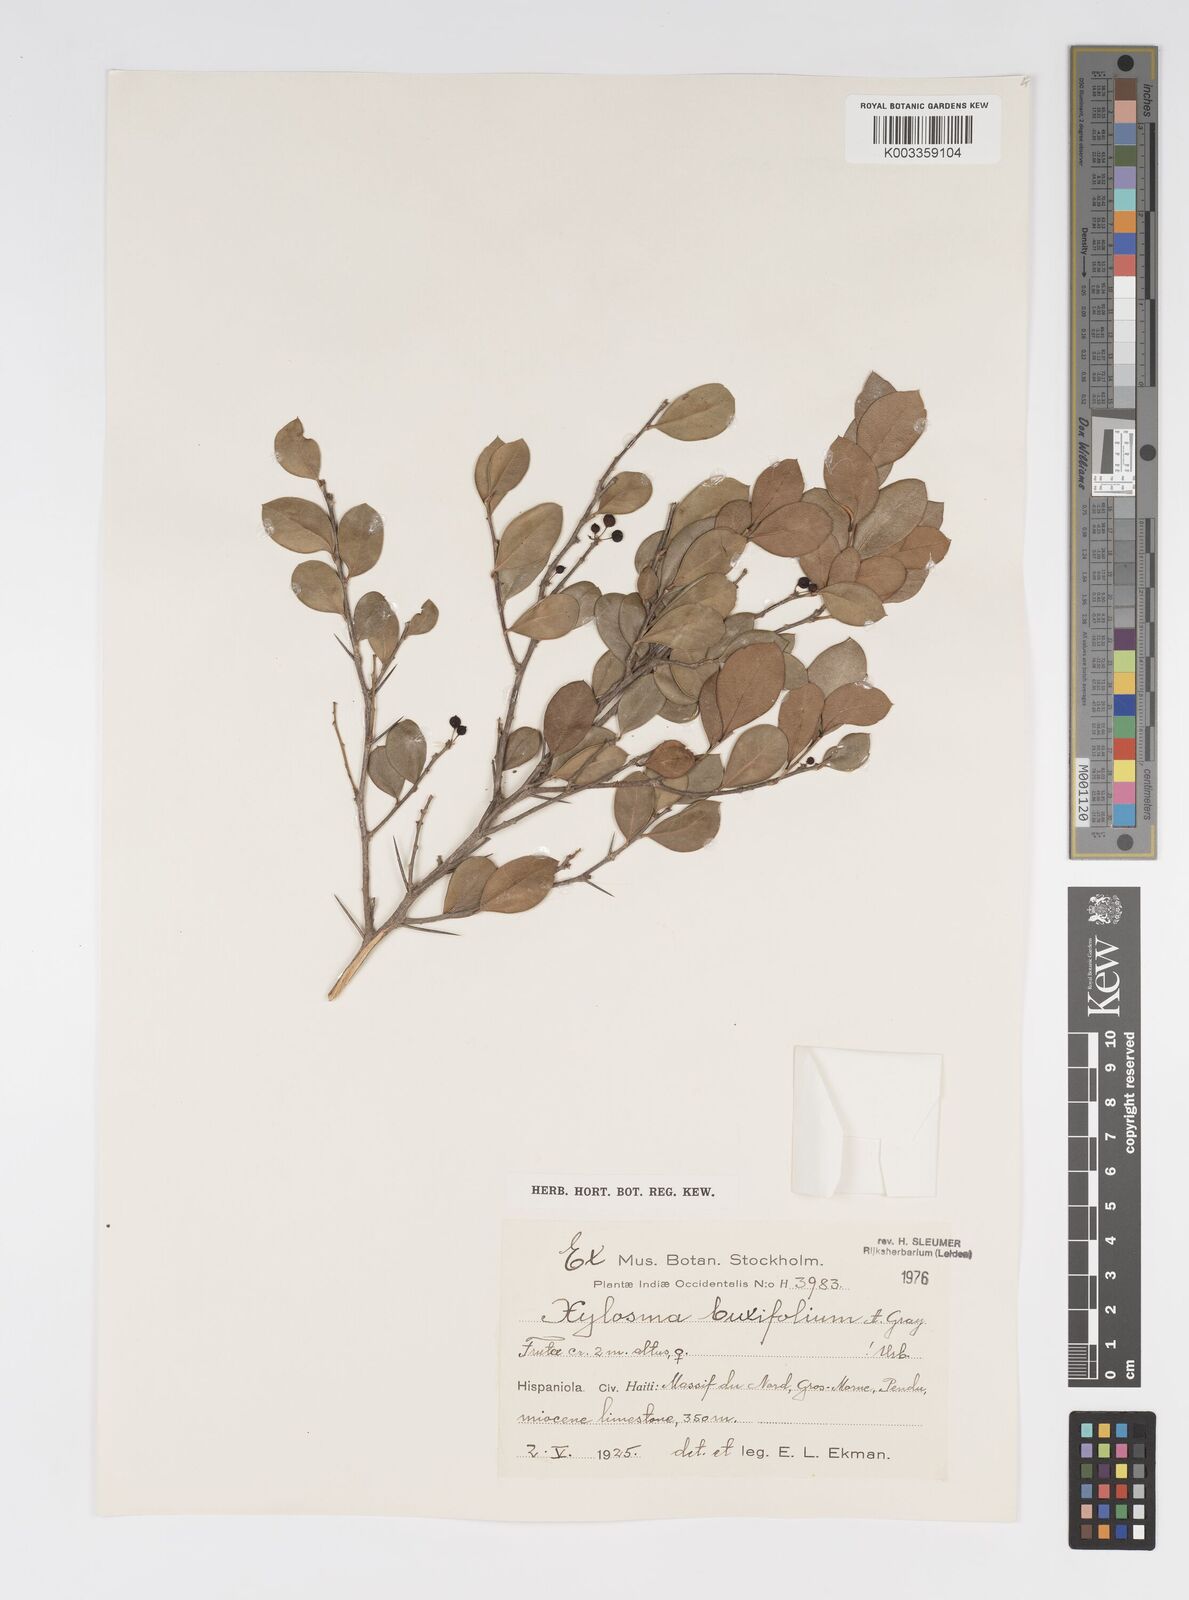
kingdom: Plantae
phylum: Tracheophyta
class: Magnoliopsida
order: Malpighiales
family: Salicaceae
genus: Xylosma
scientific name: Xylosma buxifolia
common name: Cockspur
